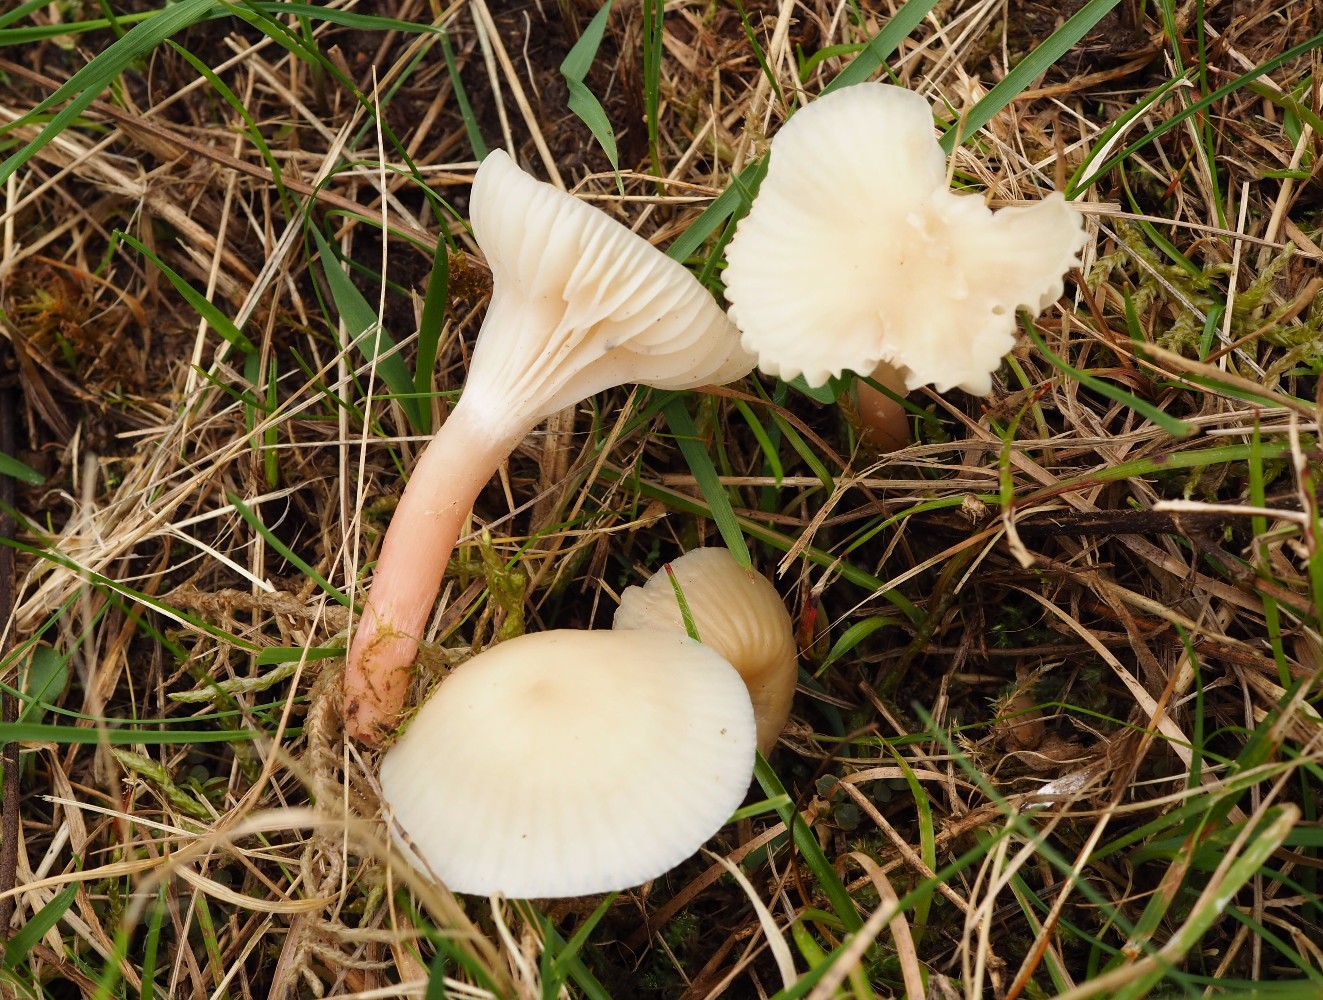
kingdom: Fungi
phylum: Basidiomycota
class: Agaricomycetes
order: Agaricales
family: Hygrophoraceae
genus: Cuphophyllus
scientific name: Cuphophyllus russocoriaceus
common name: ruslæder-vokshat
